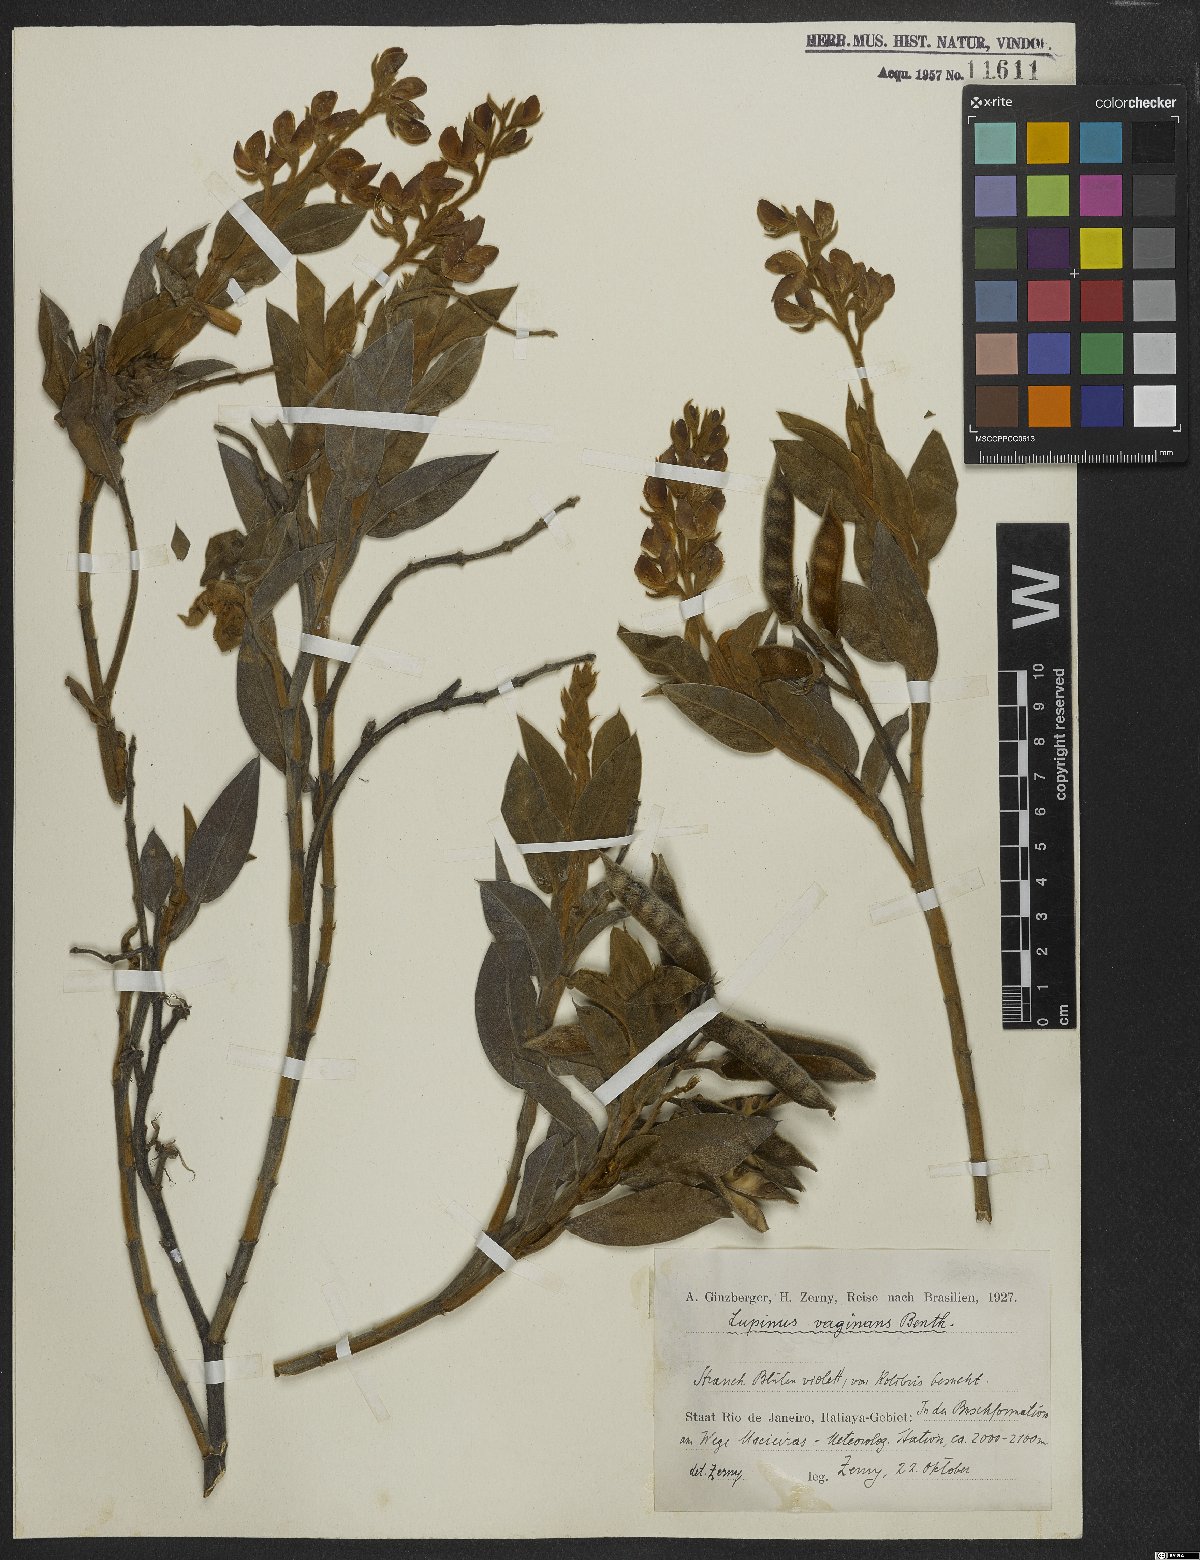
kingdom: Plantae
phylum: Tracheophyta
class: Magnoliopsida
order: Fabales
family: Fabaceae
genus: Lupinus
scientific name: Lupinus velutinus
